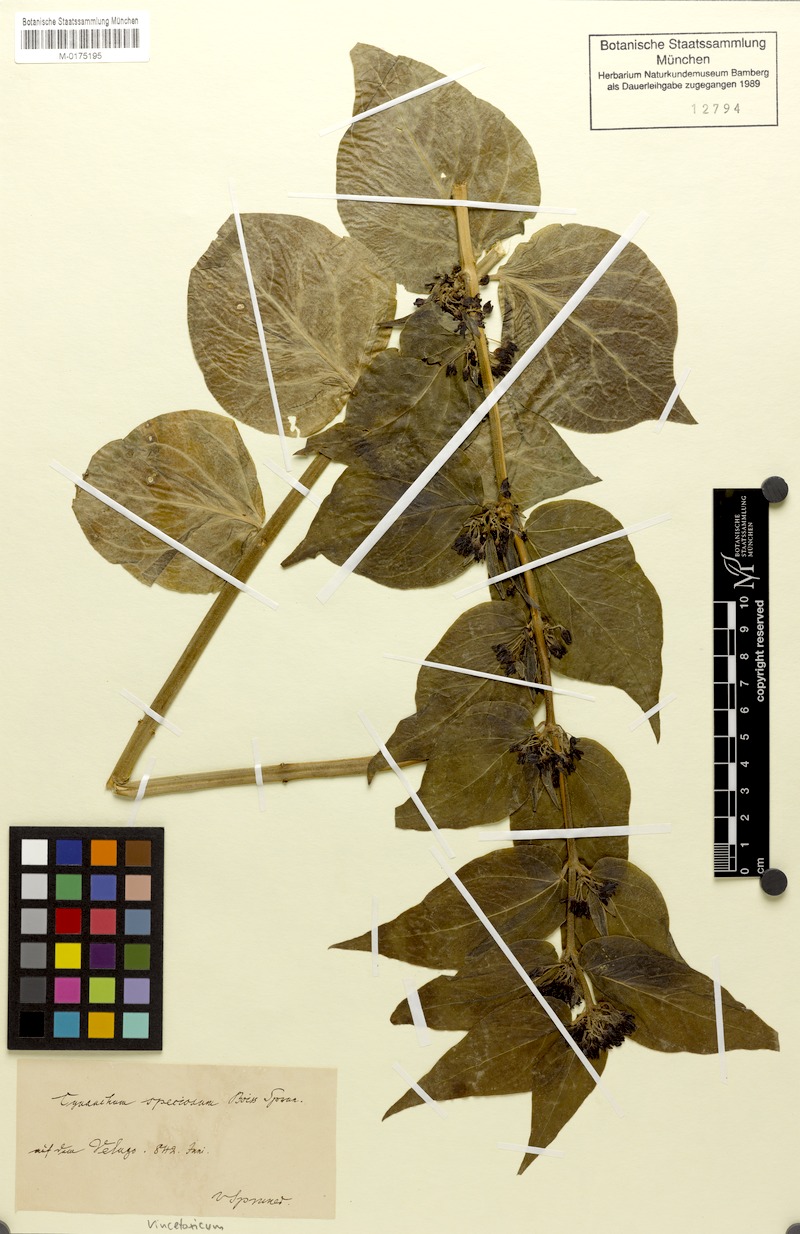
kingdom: Plantae
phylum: Tracheophyta
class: Magnoliopsida
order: Gentianales
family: Apocynaceae
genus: Vincetoxicum
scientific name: Vincetoxicum speciosum
